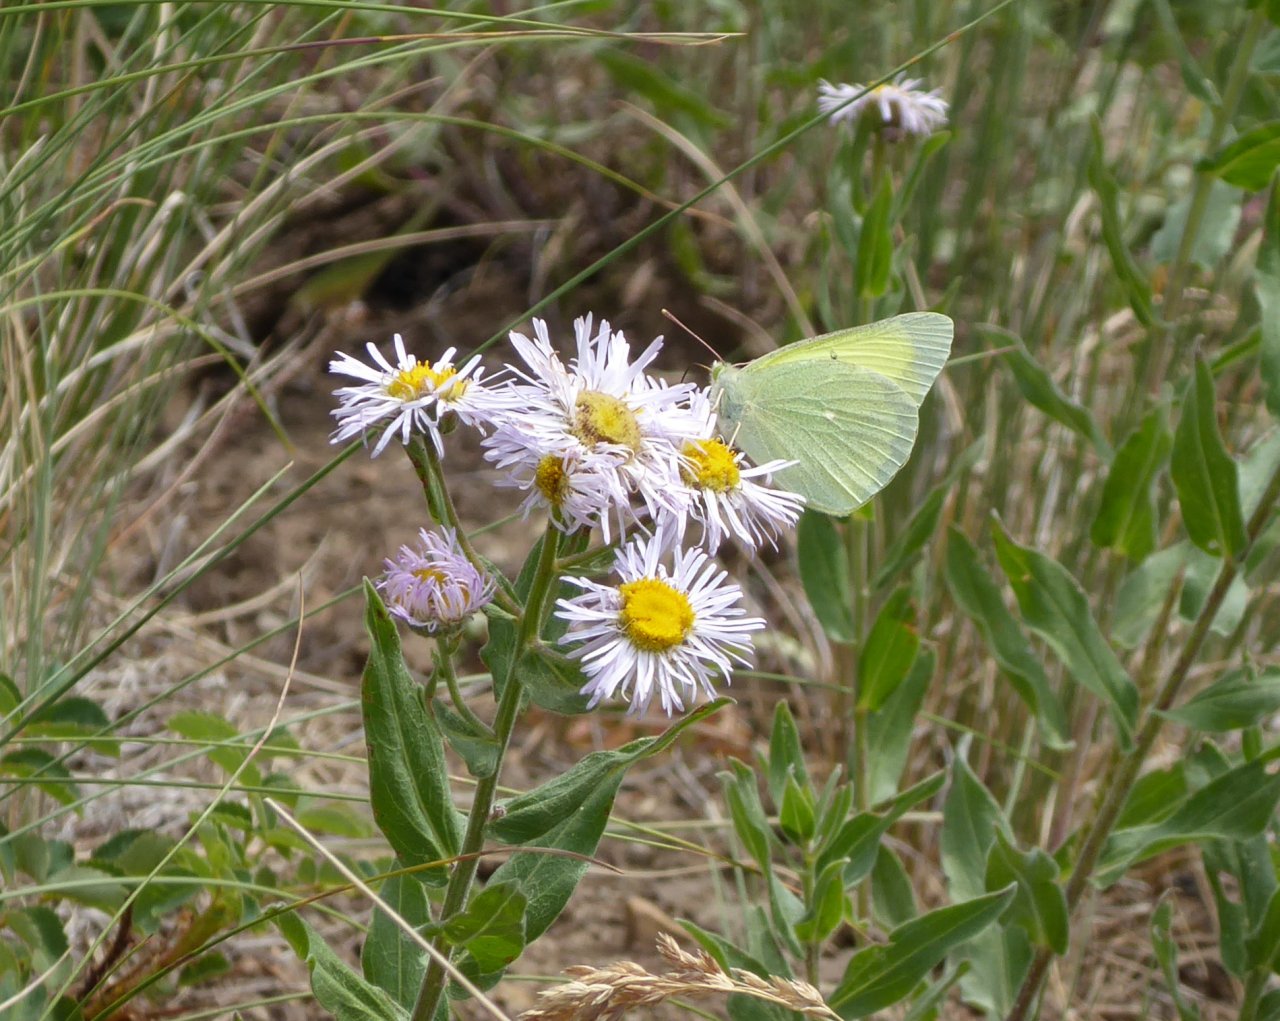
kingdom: Animalia
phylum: Arthropoda
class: Insecta
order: Lepidoptera
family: Pieridae
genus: Colias
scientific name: Colias alexandra
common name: Queen Alexandra's Sulphur
